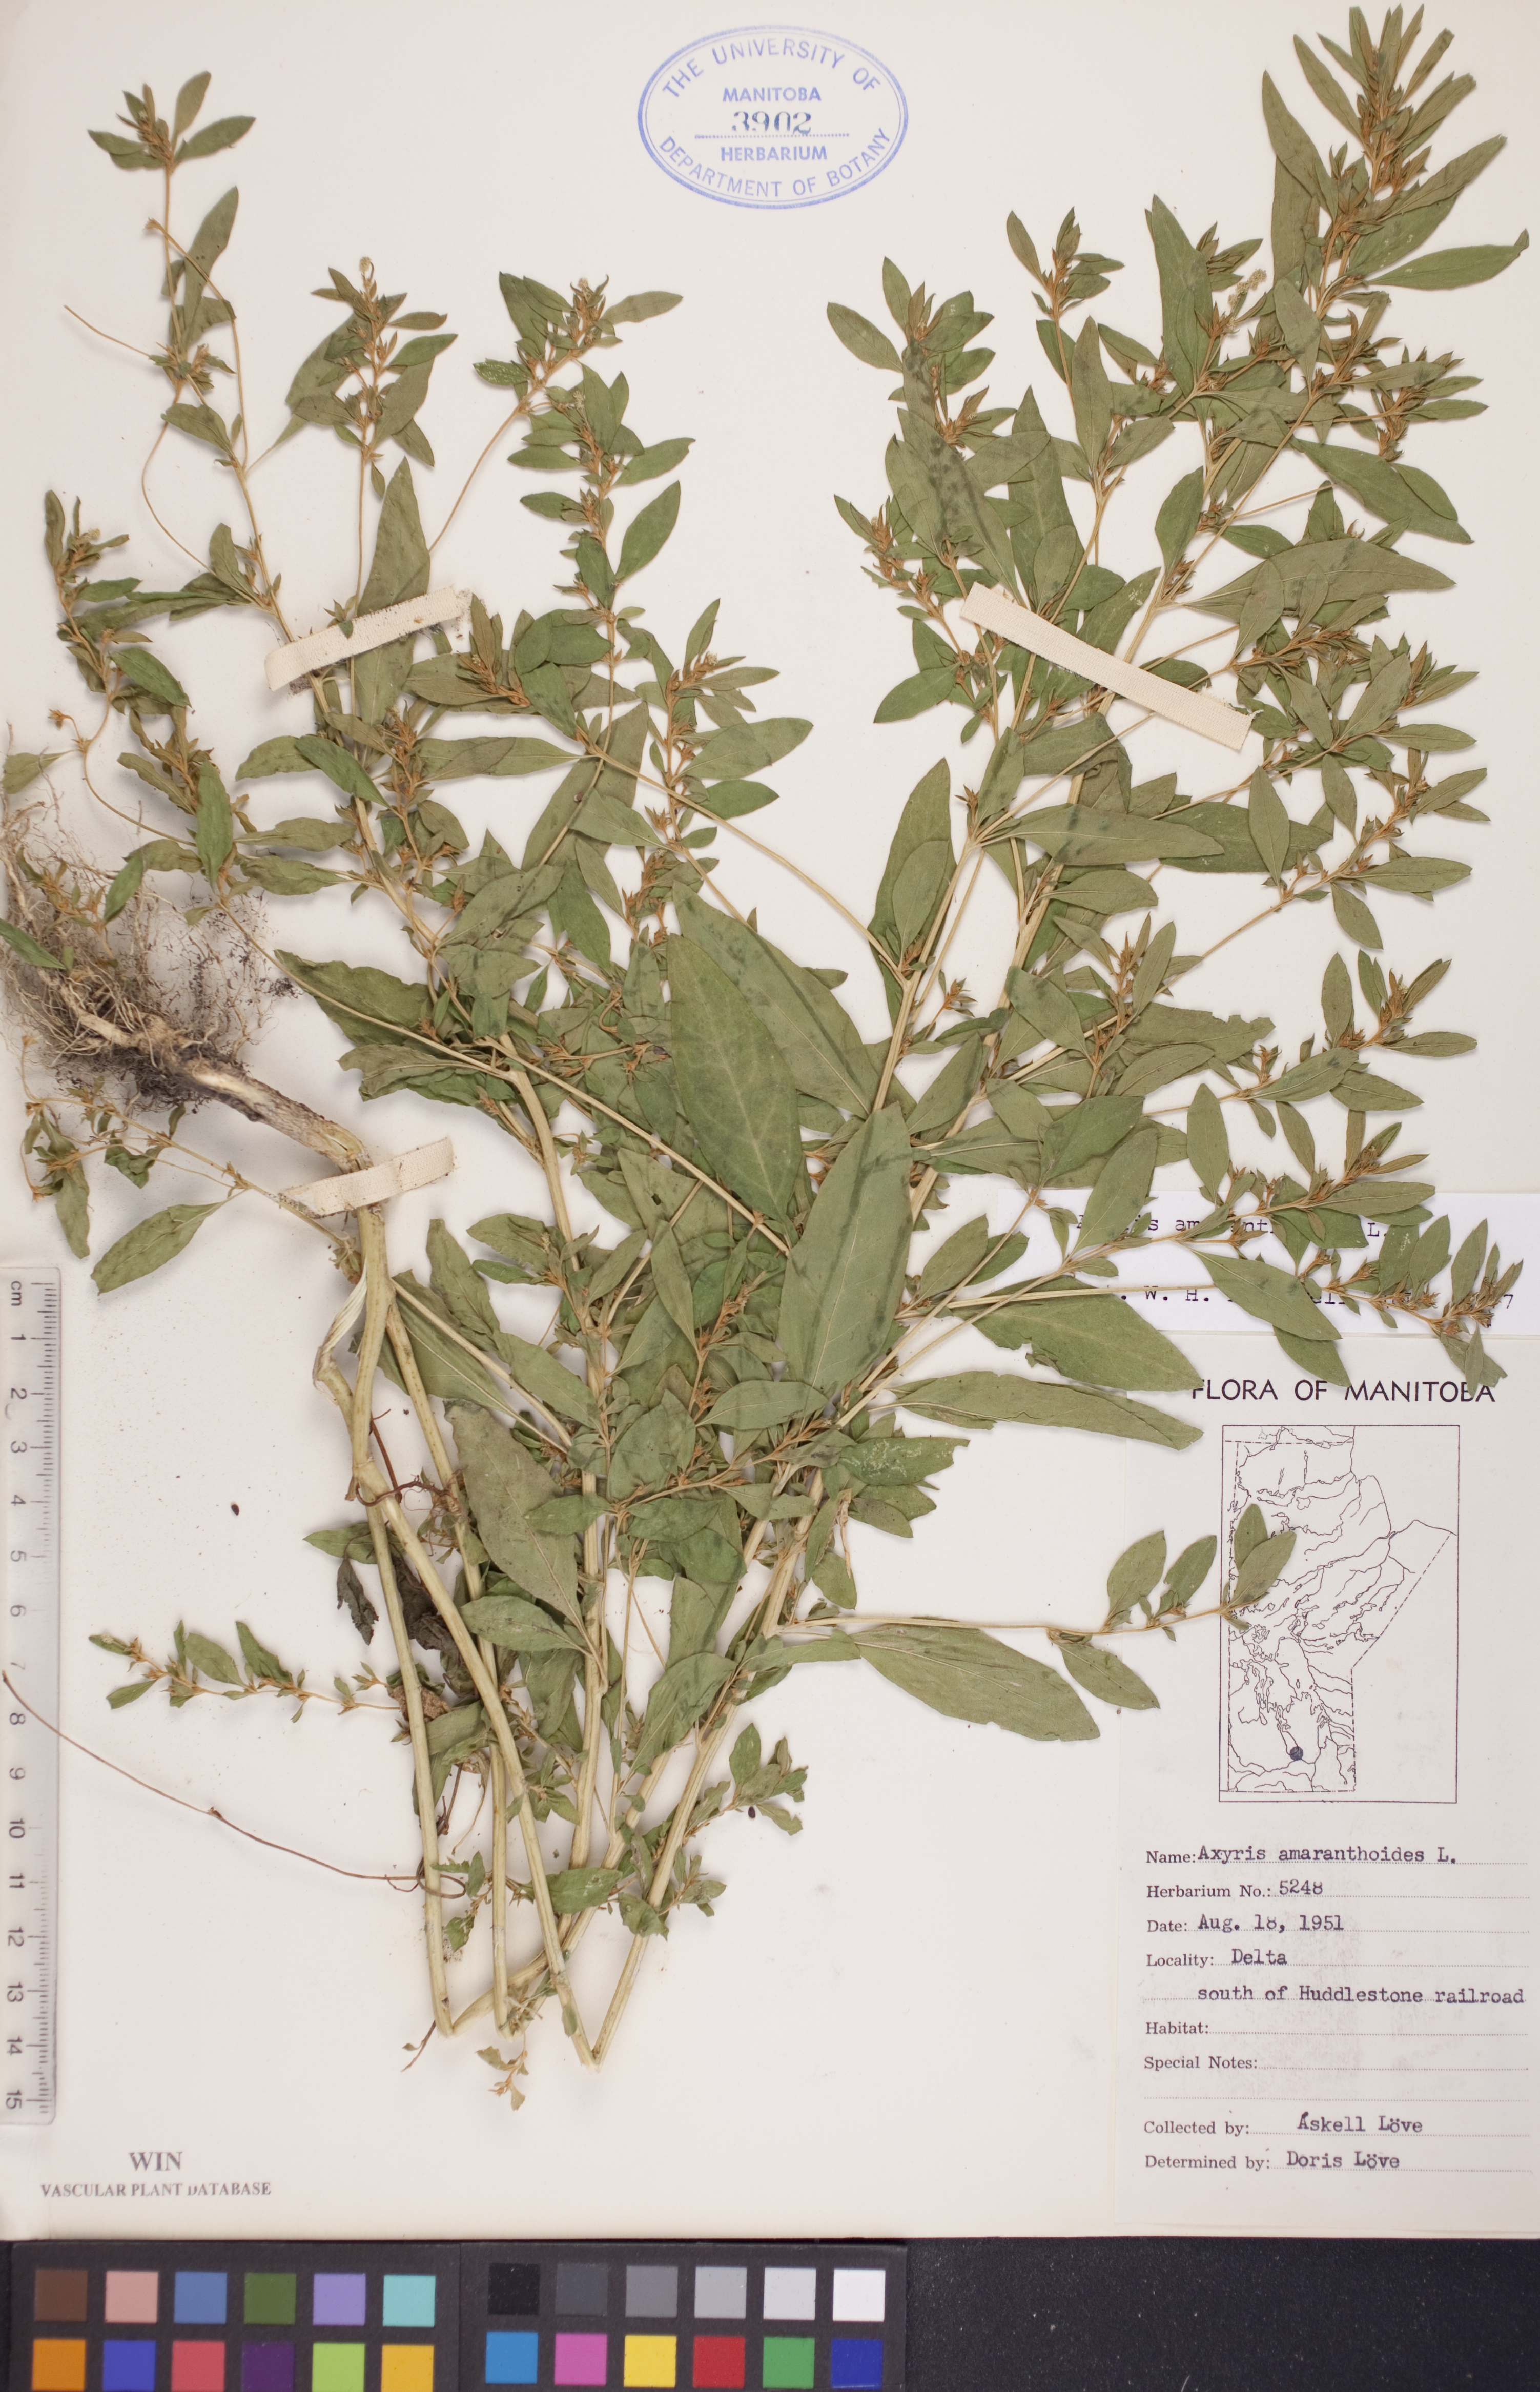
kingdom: Plantae
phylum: Tracheophyta
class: Magnoliopsida
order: Caryophyllales
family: Amaranthaceae
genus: Axyris
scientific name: Axyris amaranthoides
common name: Russian pigweed
